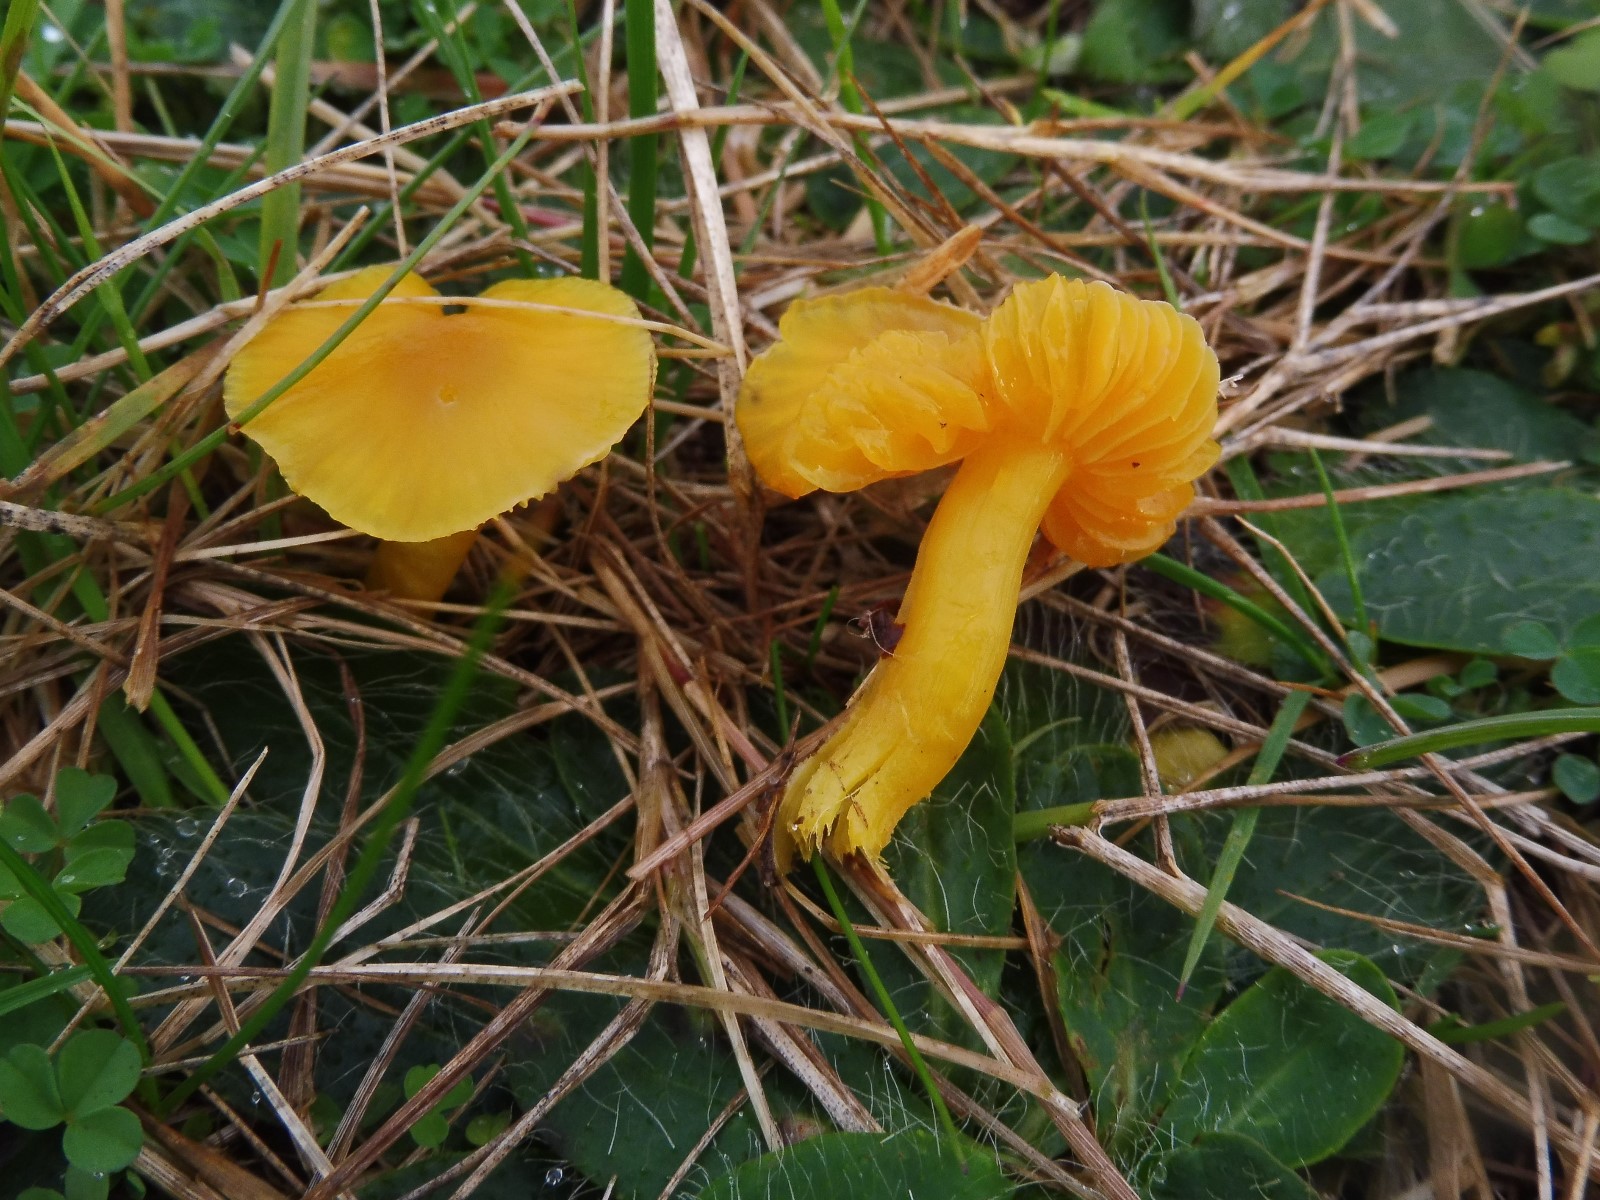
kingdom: Fungi
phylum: Basidiomycota
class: Agaricomycetes
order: Agaricales
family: Hygrophoraceae
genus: Hygrocybe
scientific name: Hygrocybe ceracea
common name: voksgul vokshat
